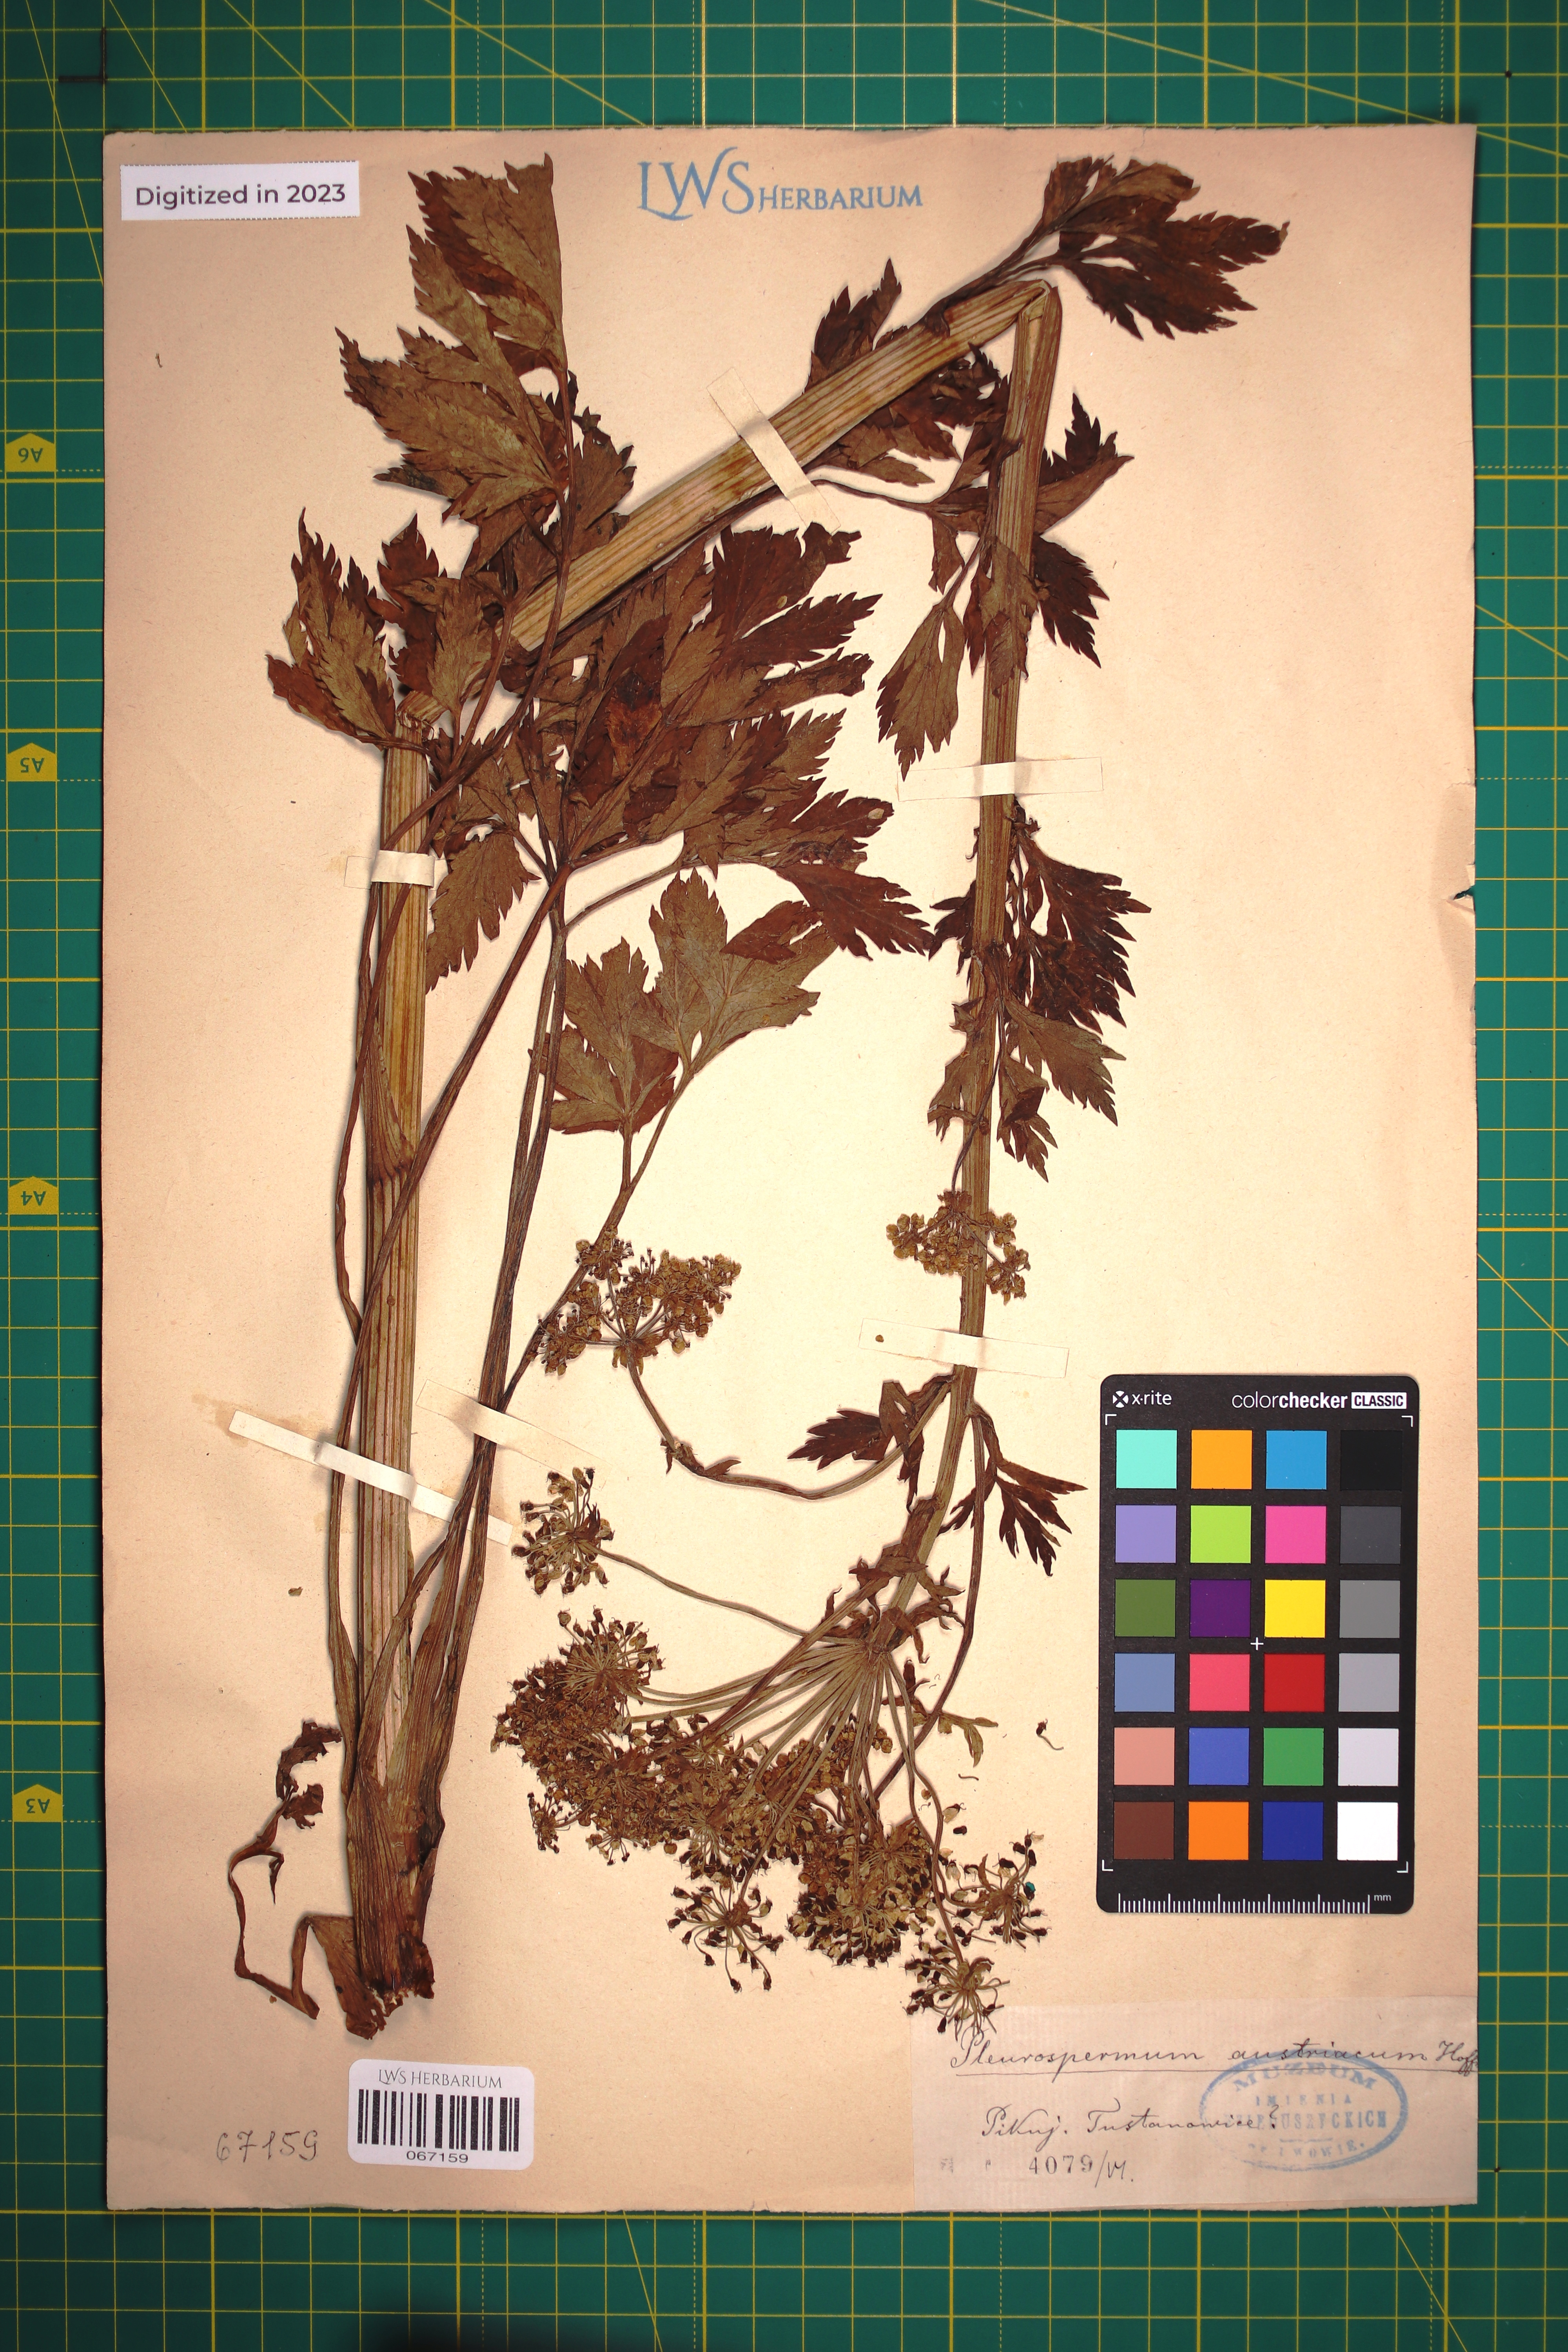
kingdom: Plantae
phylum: Tracheophyta
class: Magnoliopsida
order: Apiales
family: Apiaceae
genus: Pleurospermum
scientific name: Pleurospermum austriacum
